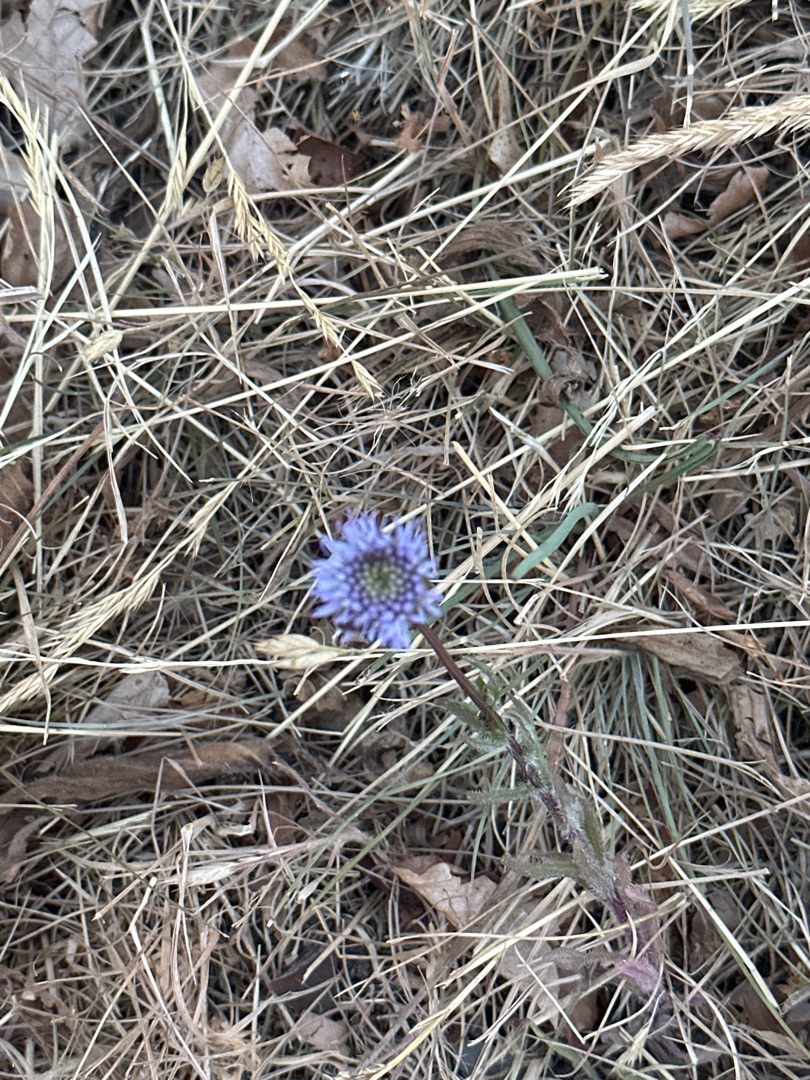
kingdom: Plantae
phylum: Tracheophyta
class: Magnoliopsida
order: Asterales
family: Campanulaceae
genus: Jasione
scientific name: Jasione montana
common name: Blåmunke
